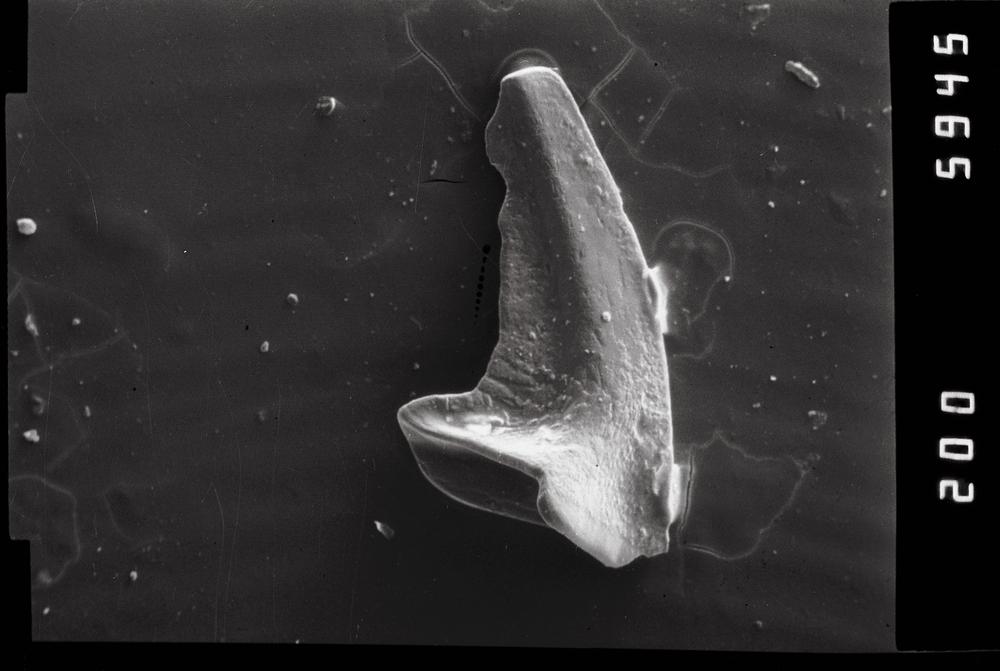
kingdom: Animalia
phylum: Chordata
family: Acodontidae
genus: Acodus
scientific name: Acodus
